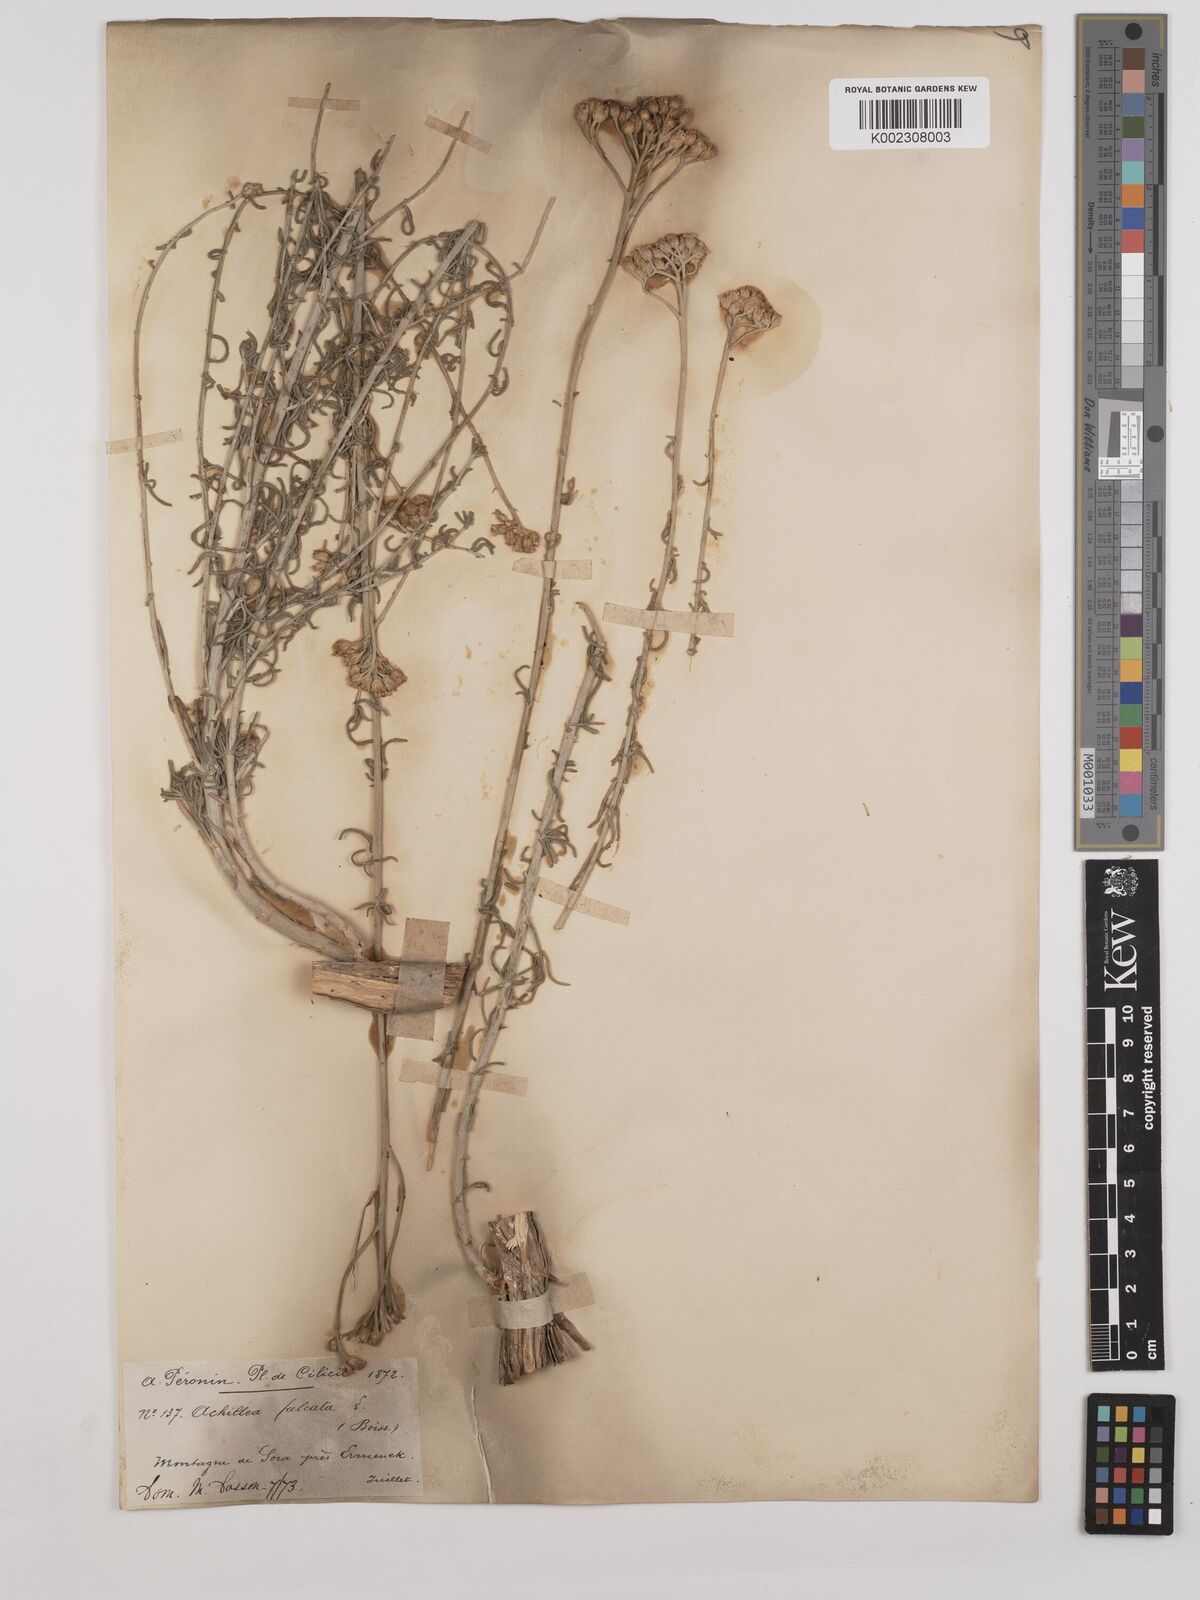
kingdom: Plantae
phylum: Tracheophyta
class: Magnoliopsida
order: Asterales
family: Asteraceae
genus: Achillea
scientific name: Achillea chamaemelifolia
